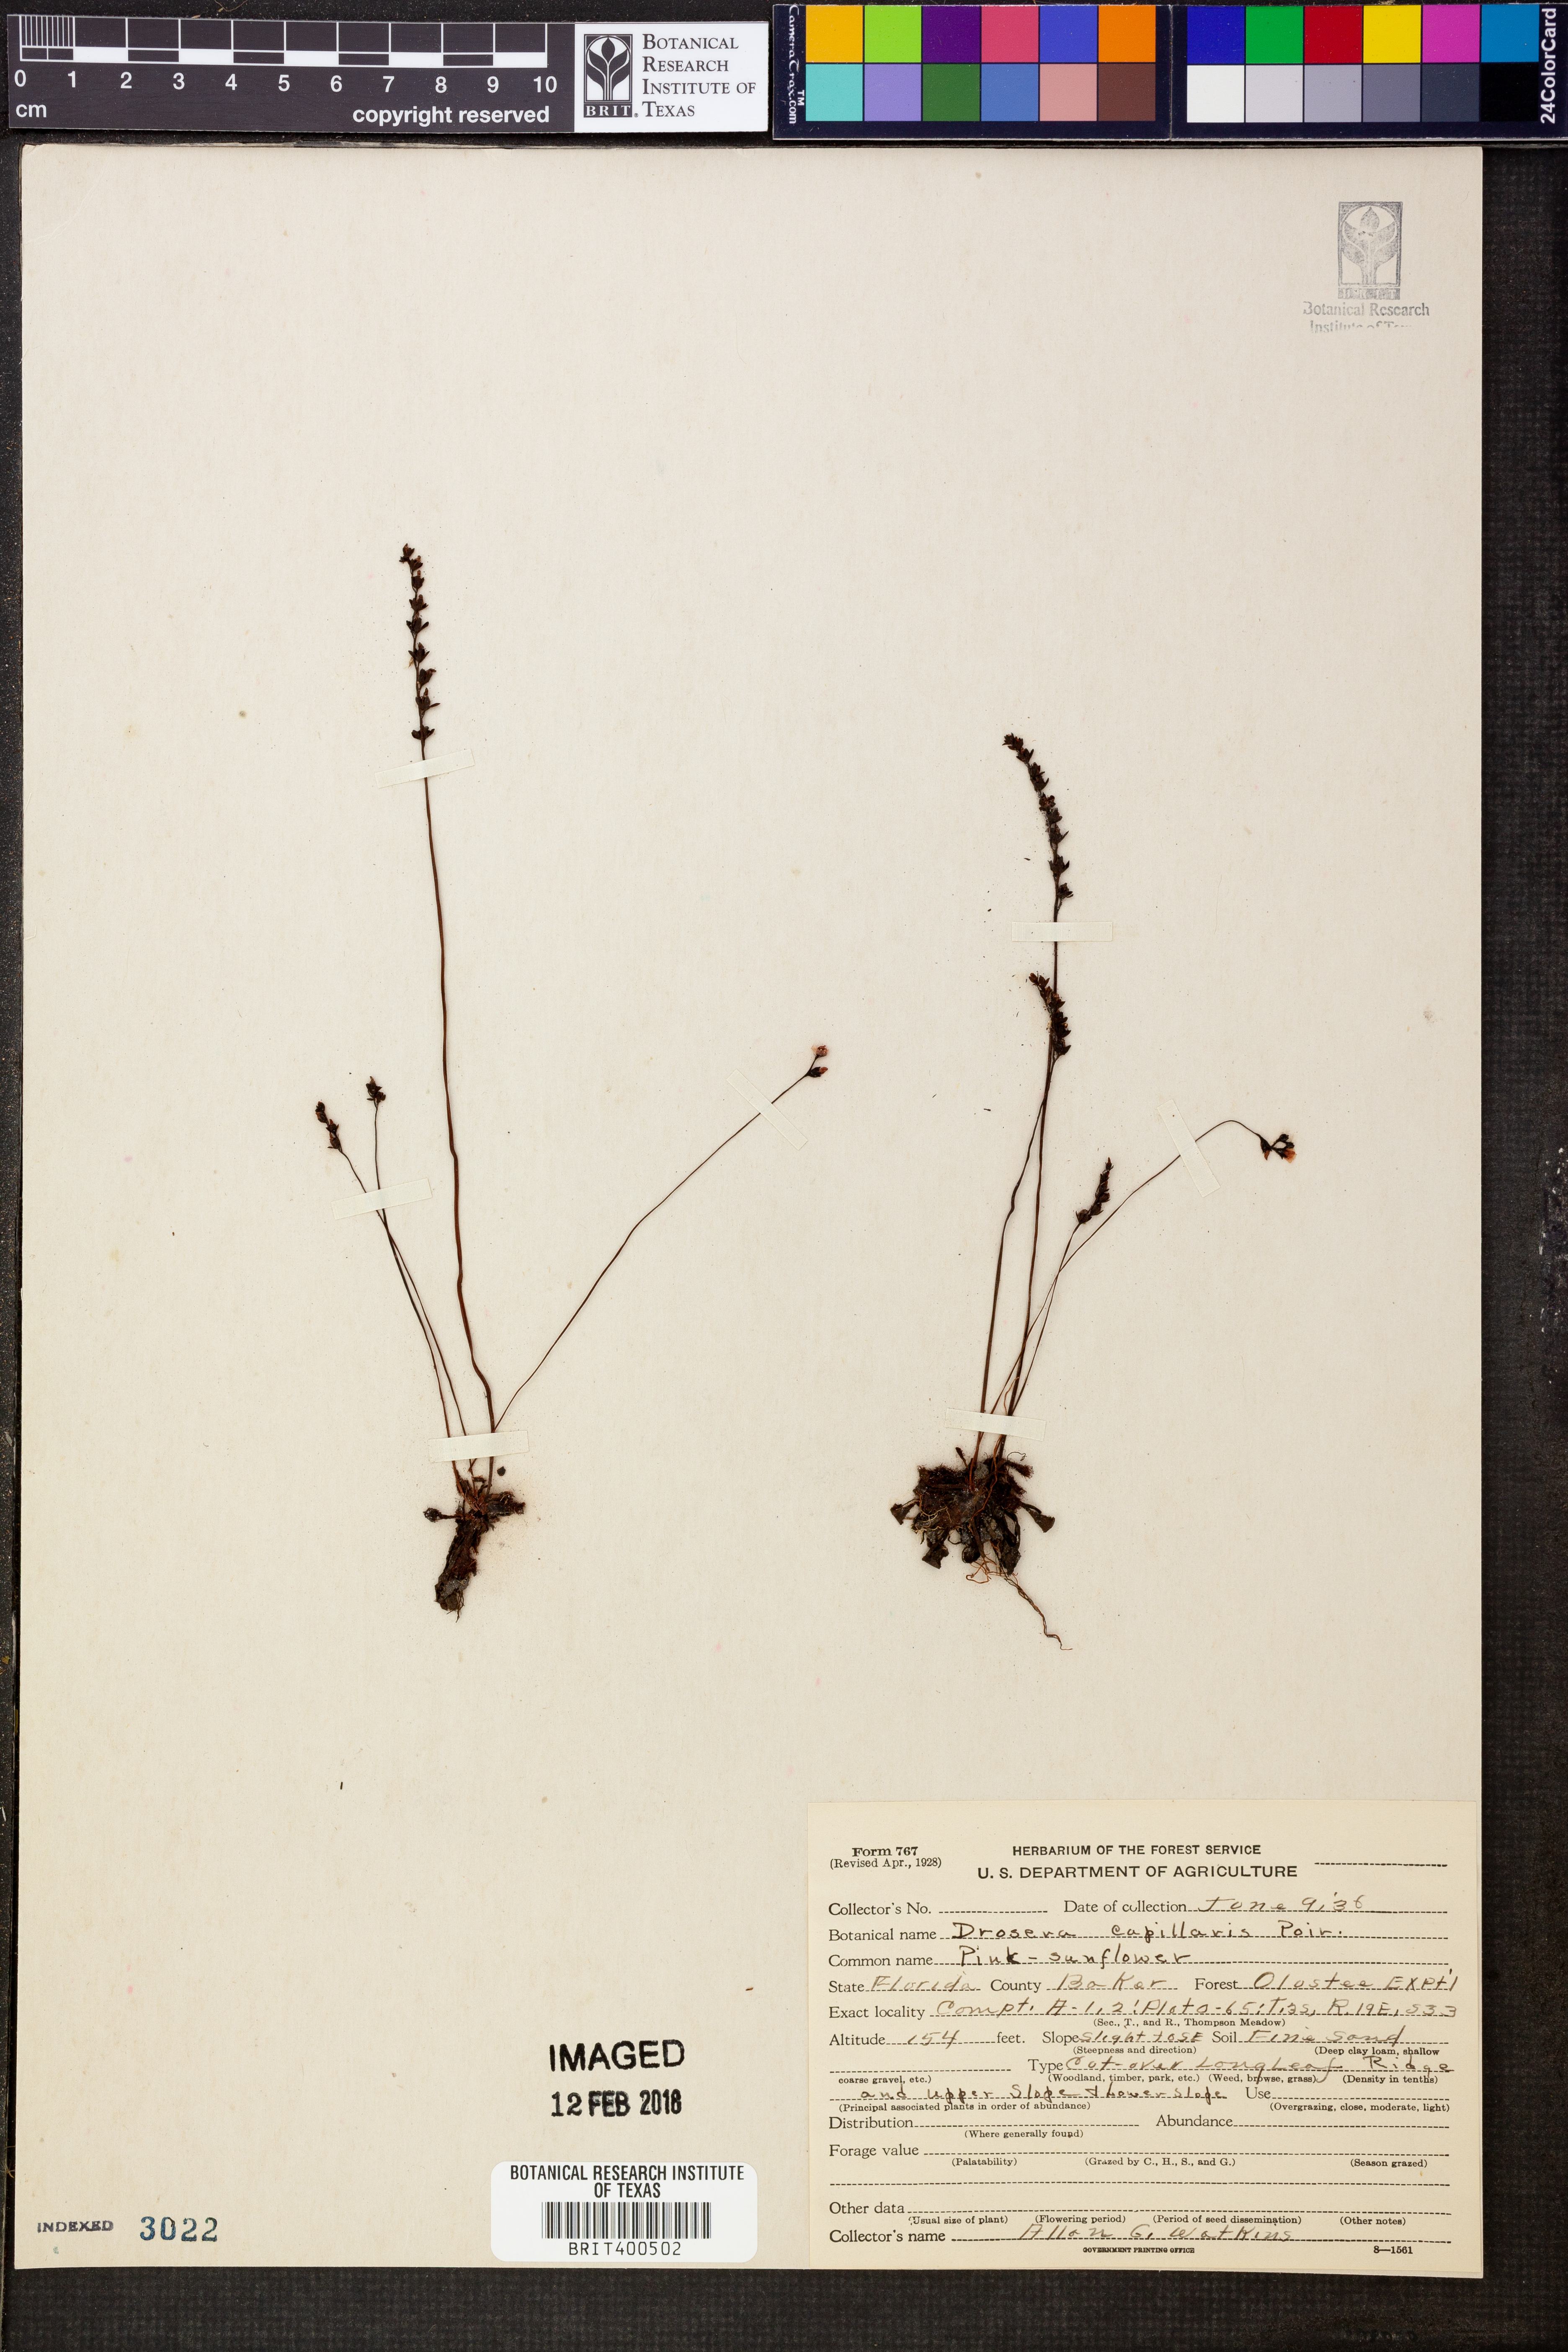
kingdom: Plantae
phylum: Tracheophyta
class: Magnoliopsida
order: Caryophyllales
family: Droseraceae
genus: Drosera
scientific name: Drosera capillaris
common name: Pink sundew
